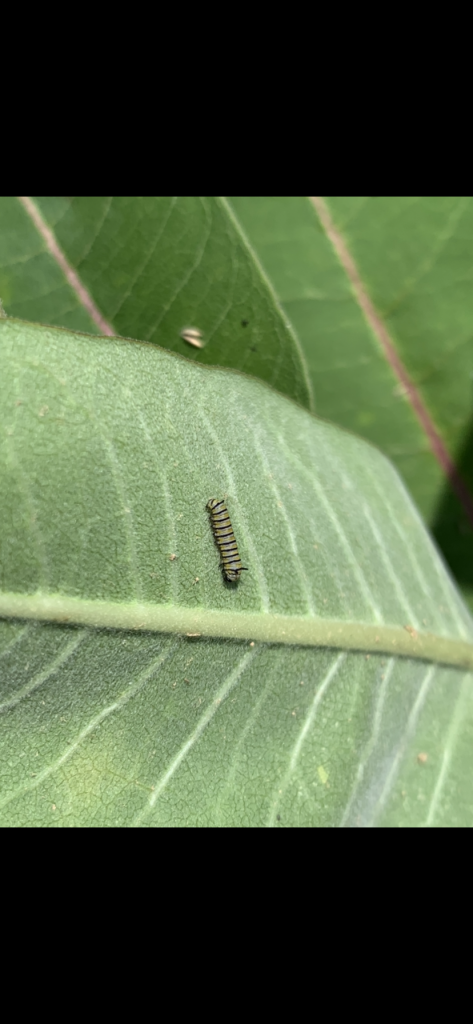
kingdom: Animalia
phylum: Arthropoda
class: Insecta
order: Lepidoptera
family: Nymphalidae
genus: Danaus
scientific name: Danaus plexippus
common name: Monarch
